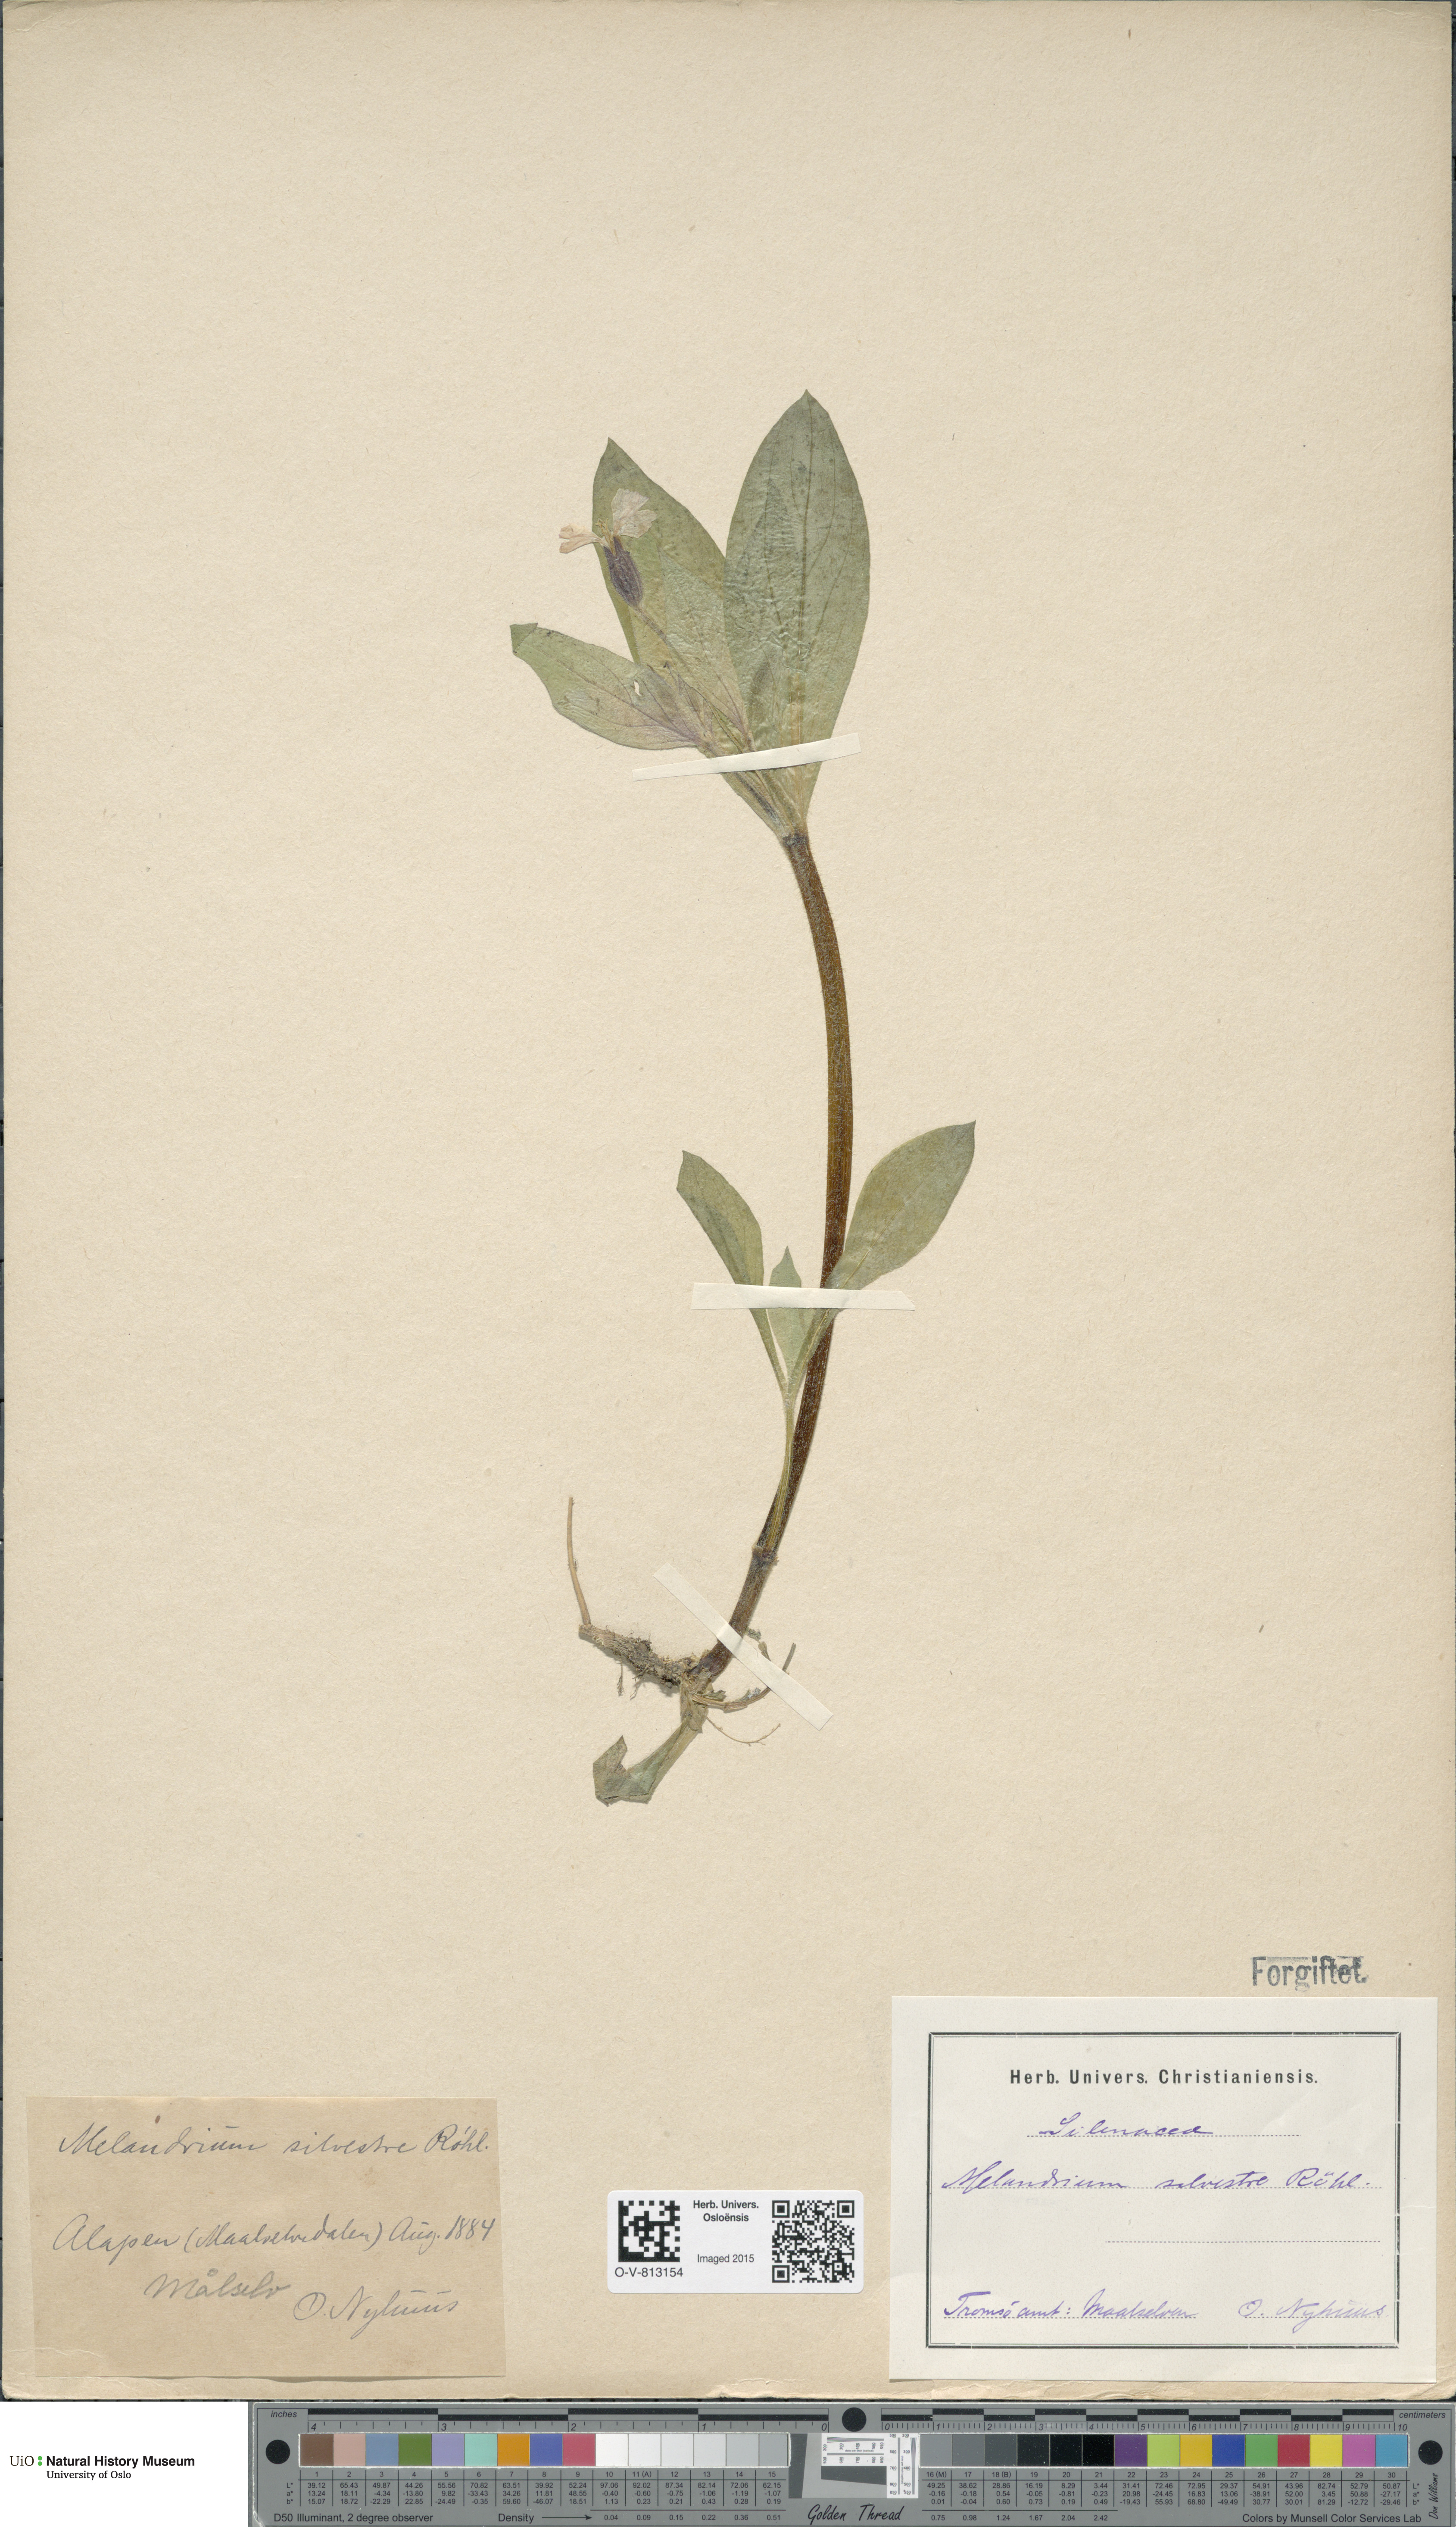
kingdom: Plantae
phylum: Tracheophyta
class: Magnoliopsida
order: Caryophyllales
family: Caryophyllaceae
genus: Silene
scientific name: Silene dioica
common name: Red campion
